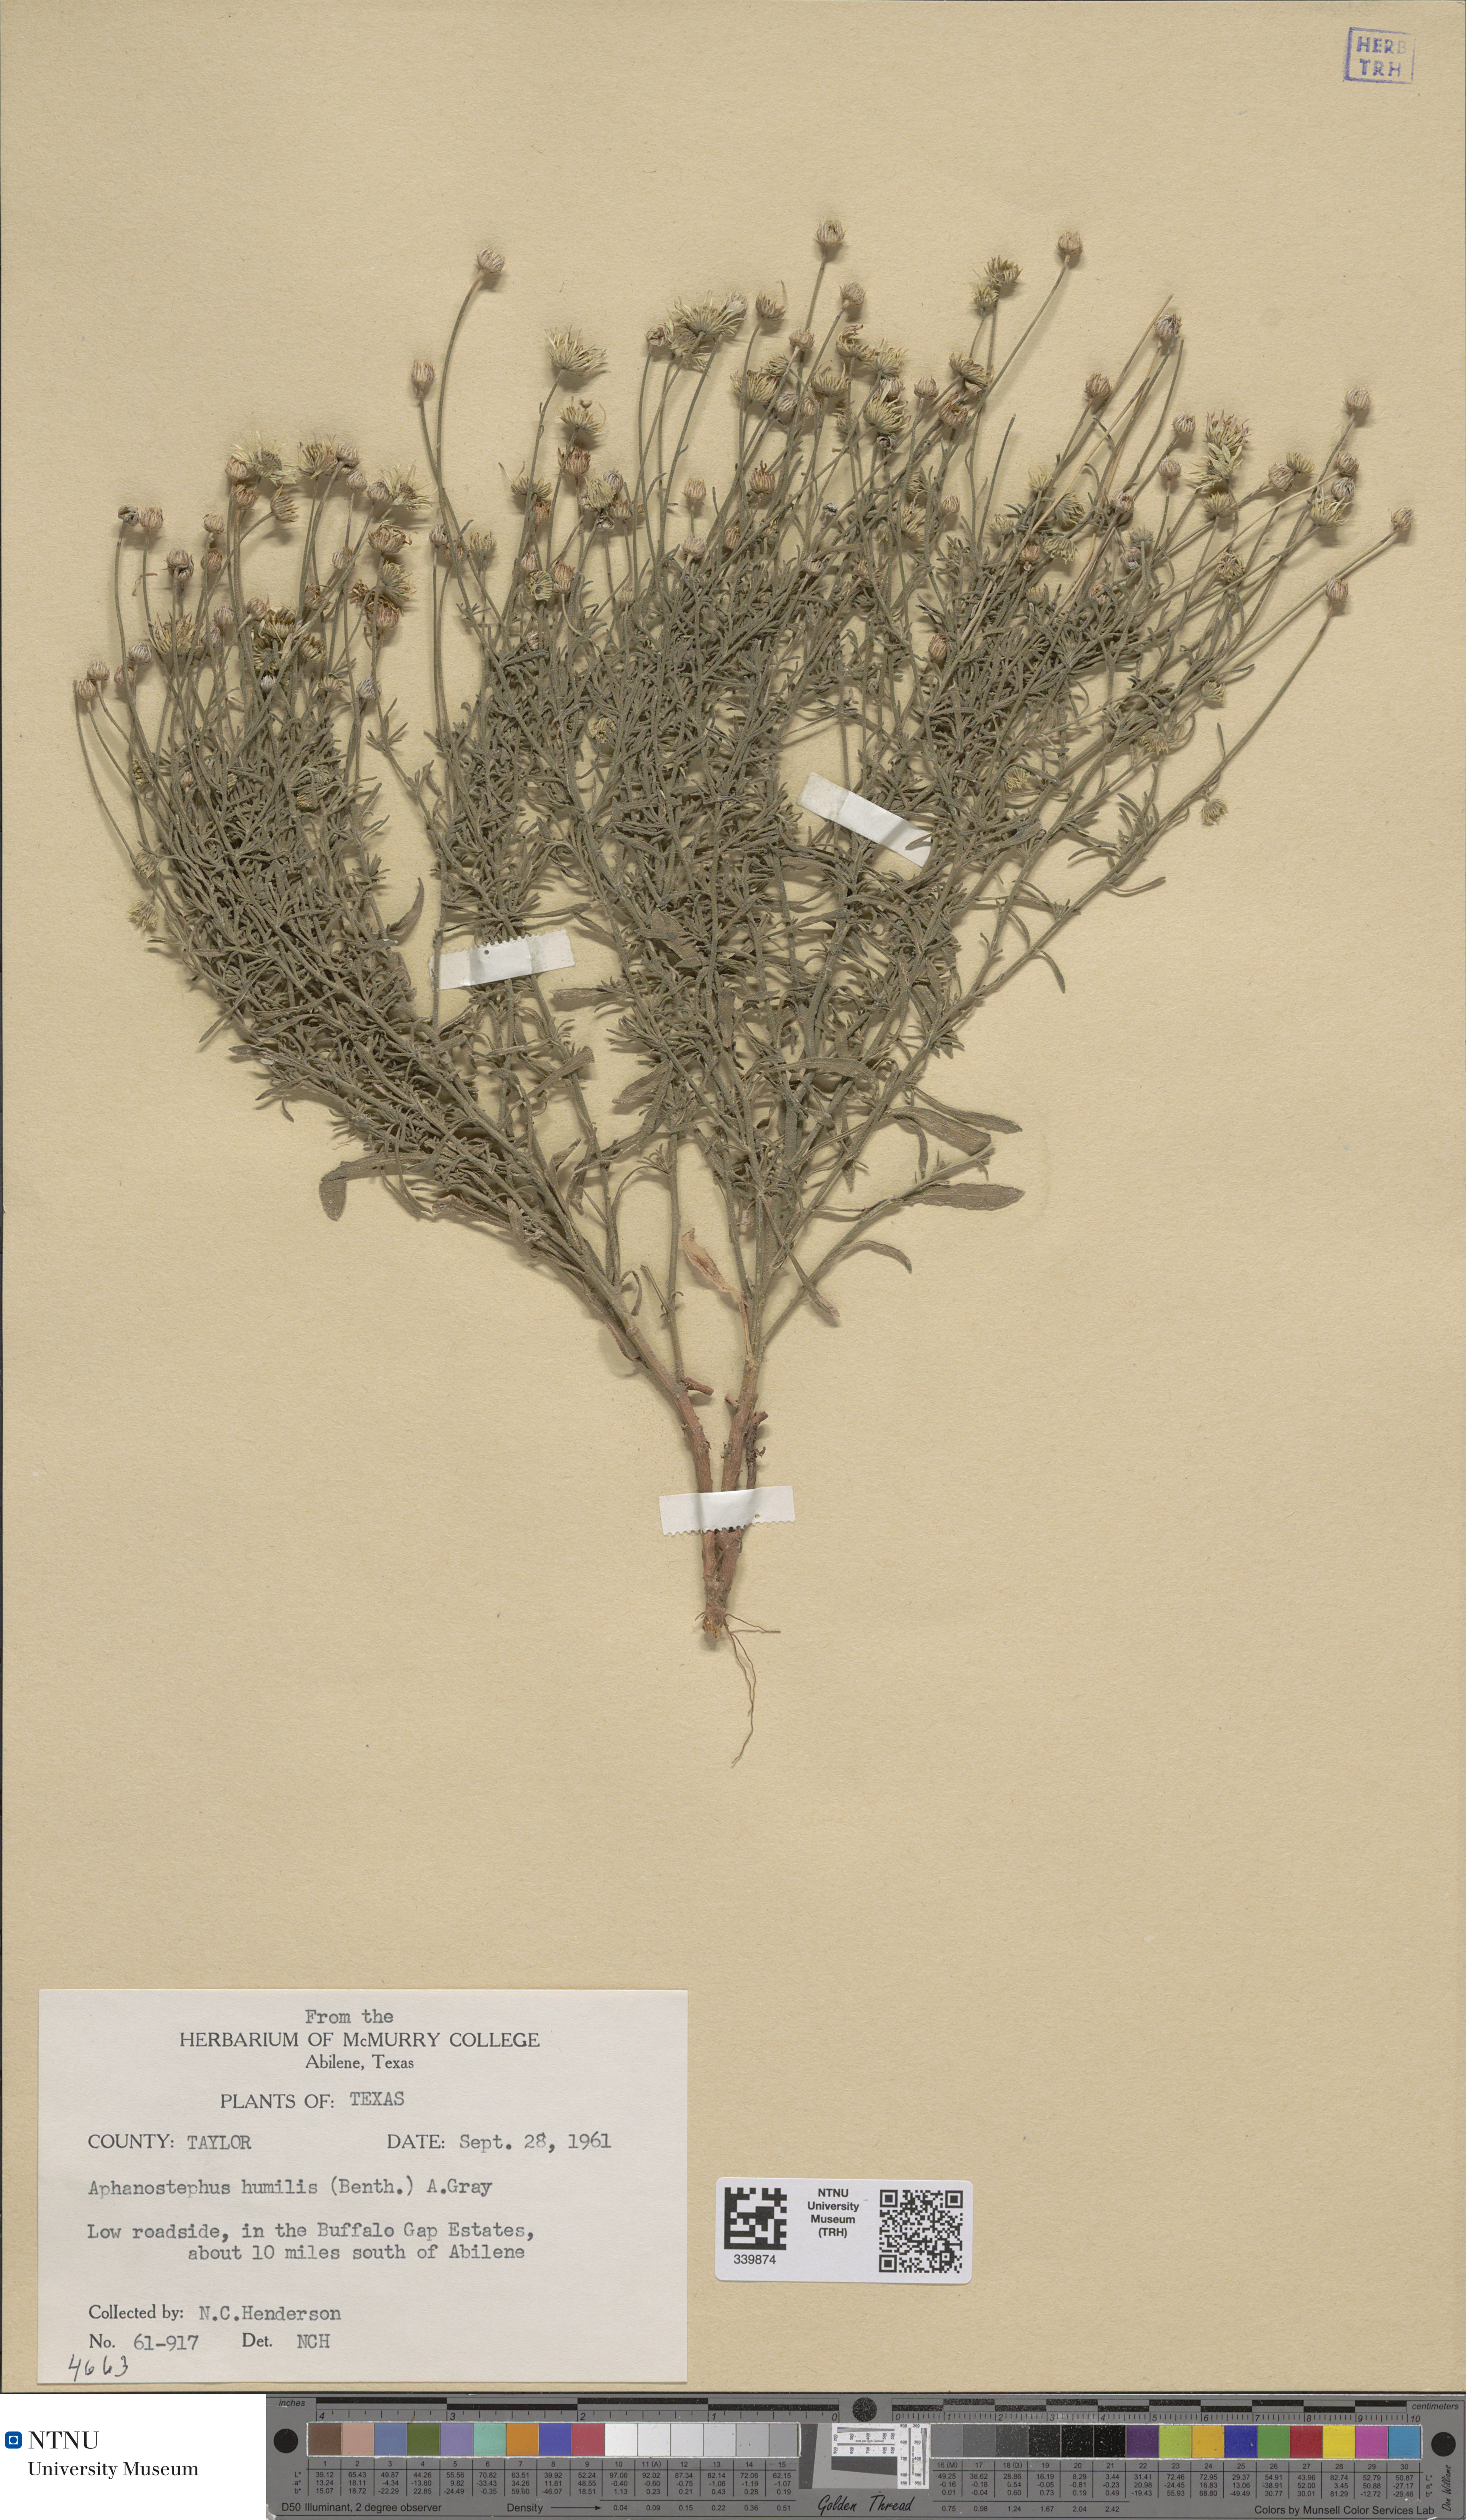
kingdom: Plantae
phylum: Tracheophyta
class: Magnoliopsida
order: Asterales
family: Asteraceae
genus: Aphanostephus
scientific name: Aphanostephus ramosissimus
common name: Plains lazy daisy
